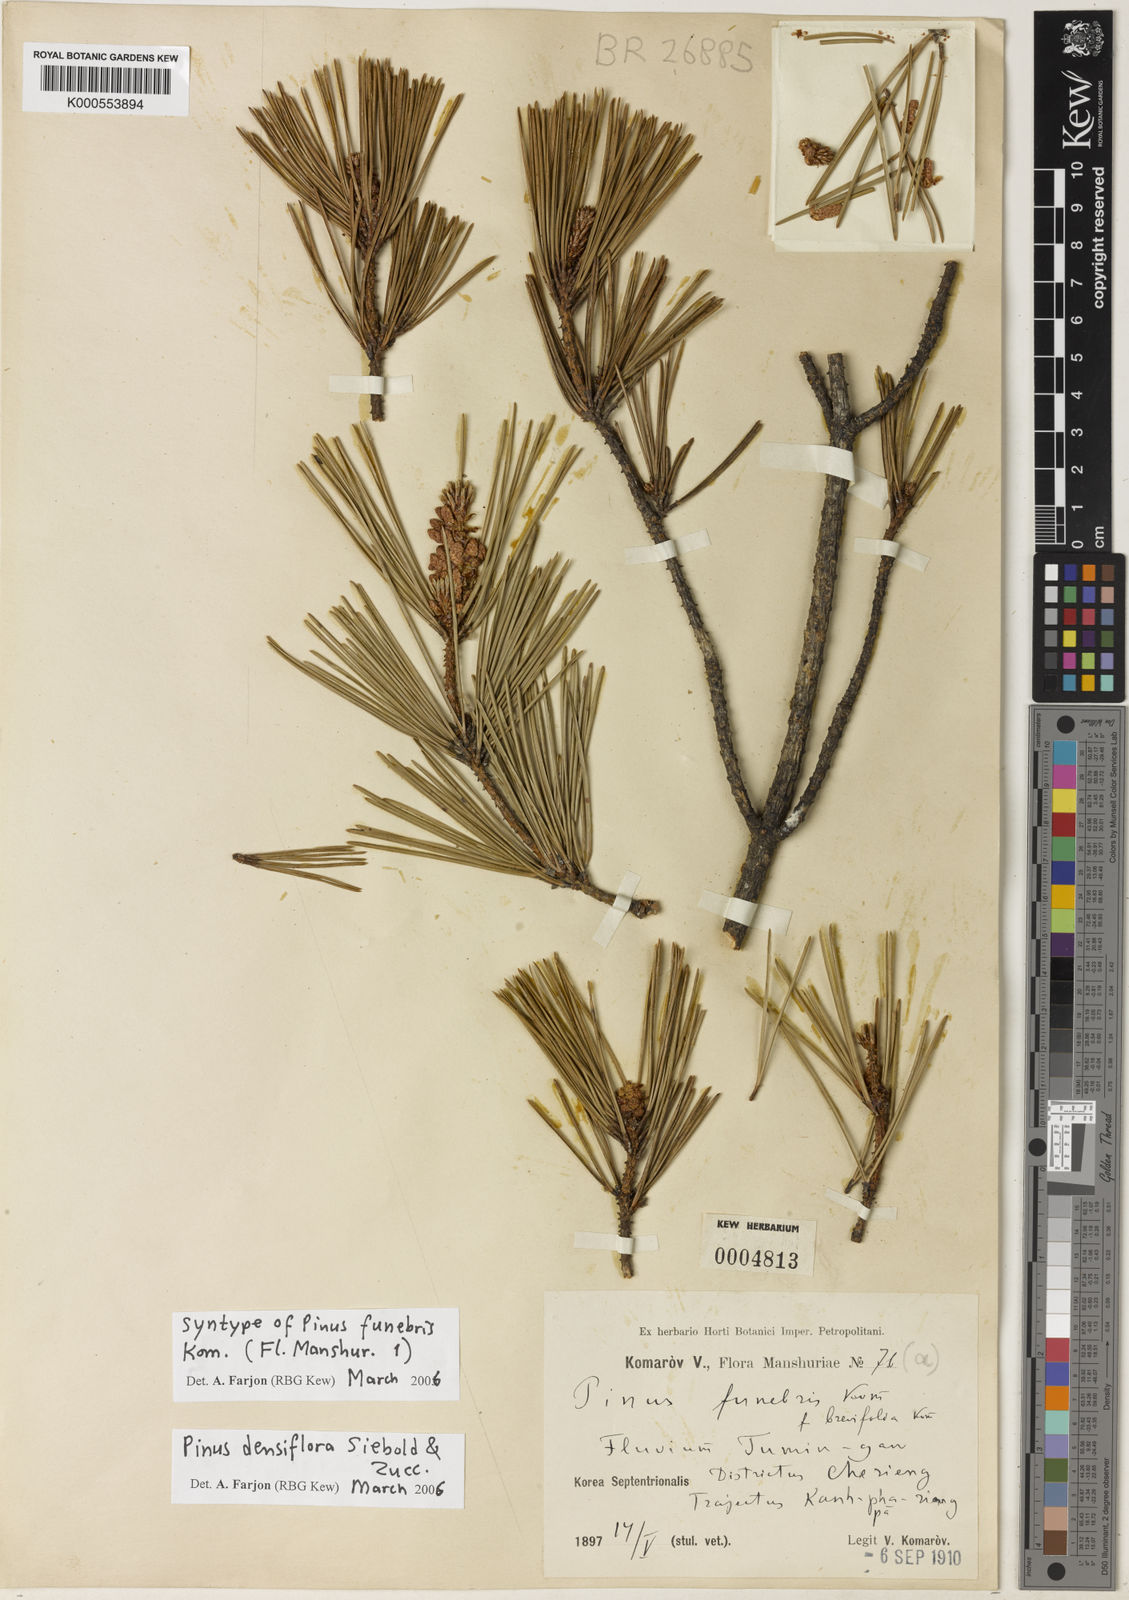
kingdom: Plantae
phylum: Tracheophyta
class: Pinopsida
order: Pinales
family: Pinaceae
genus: Pinus
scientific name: Pinus densiflora
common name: Japanese red pine
